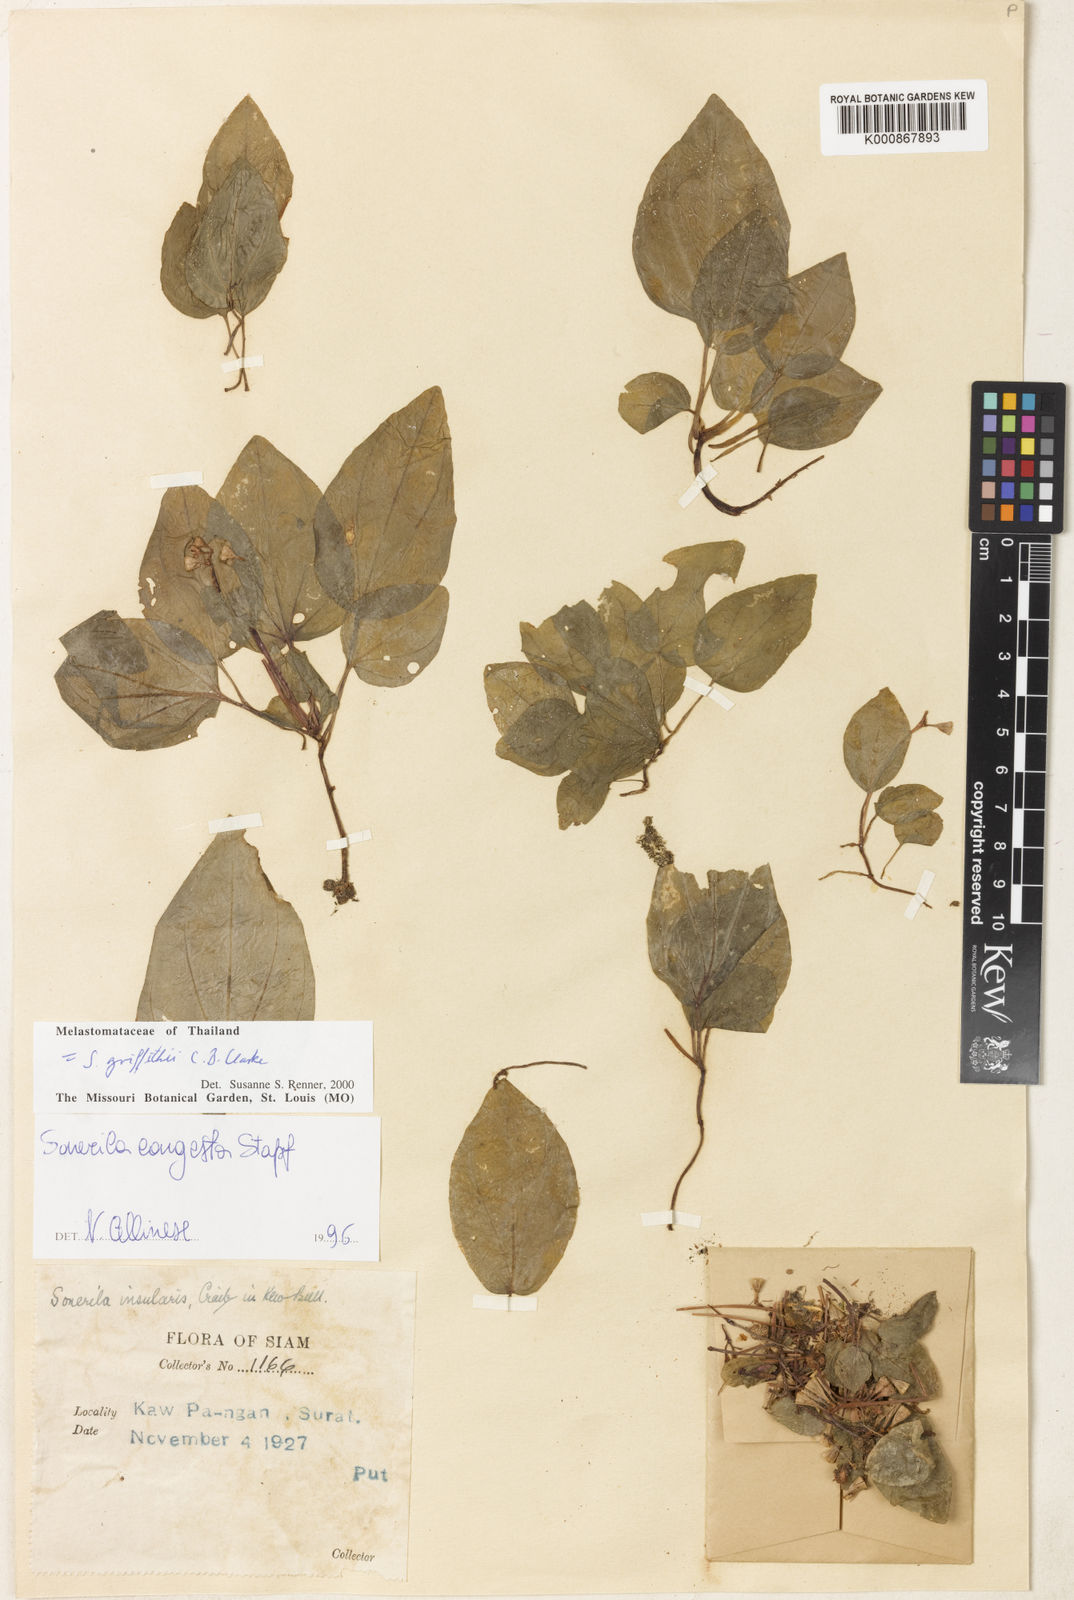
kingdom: Plantae
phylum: Tracheophyta
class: Magnoliopsida
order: Myrtales
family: Melastomataceae
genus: Sonerila
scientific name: Sonerila griffithii
